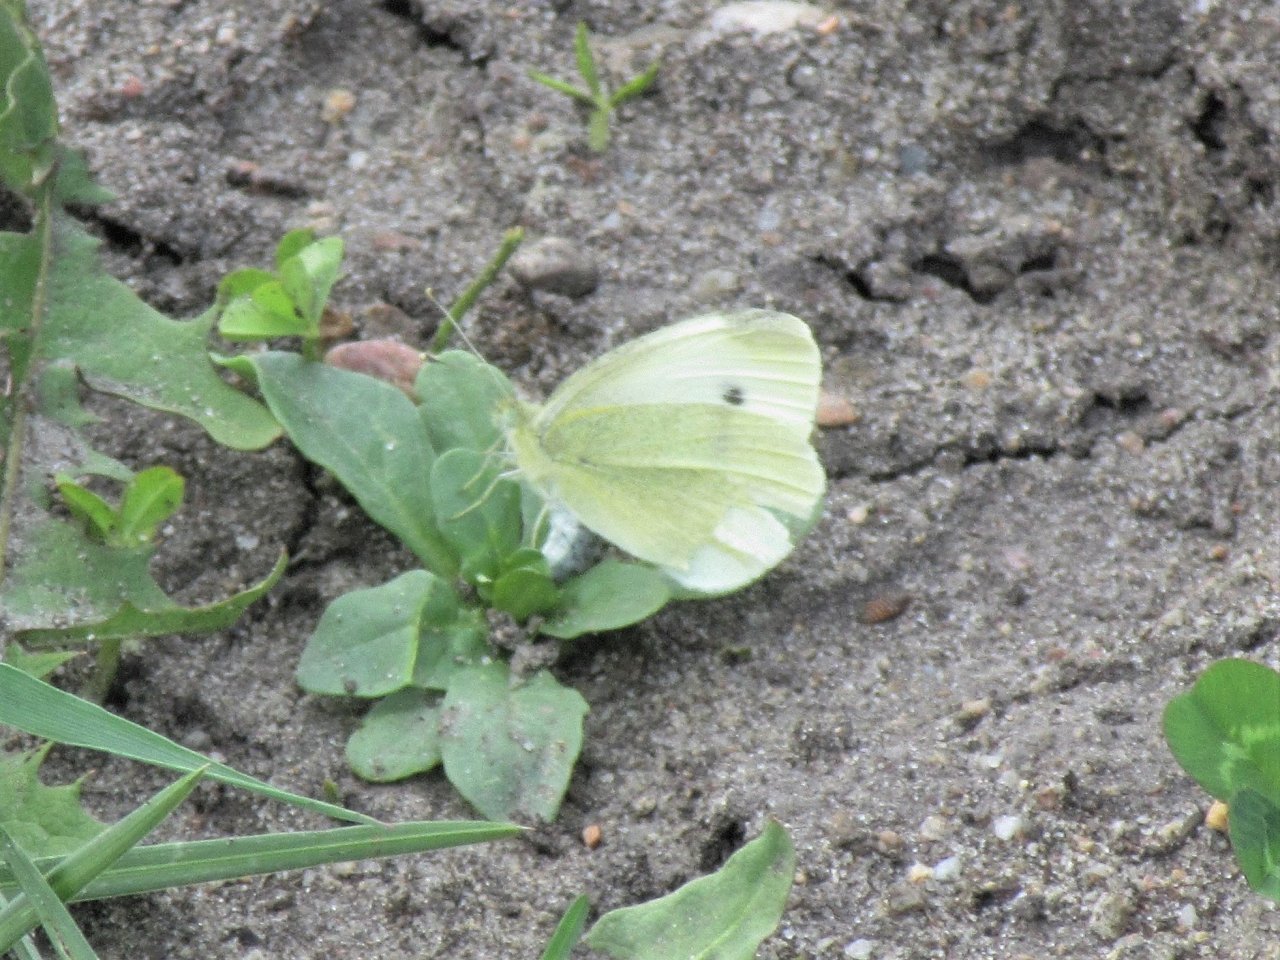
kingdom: Animalia
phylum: Arthropoda
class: Insecta
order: Lepidoptera
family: Pieridae
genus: Pieris
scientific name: Pieris rapae
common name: Cabbage White
